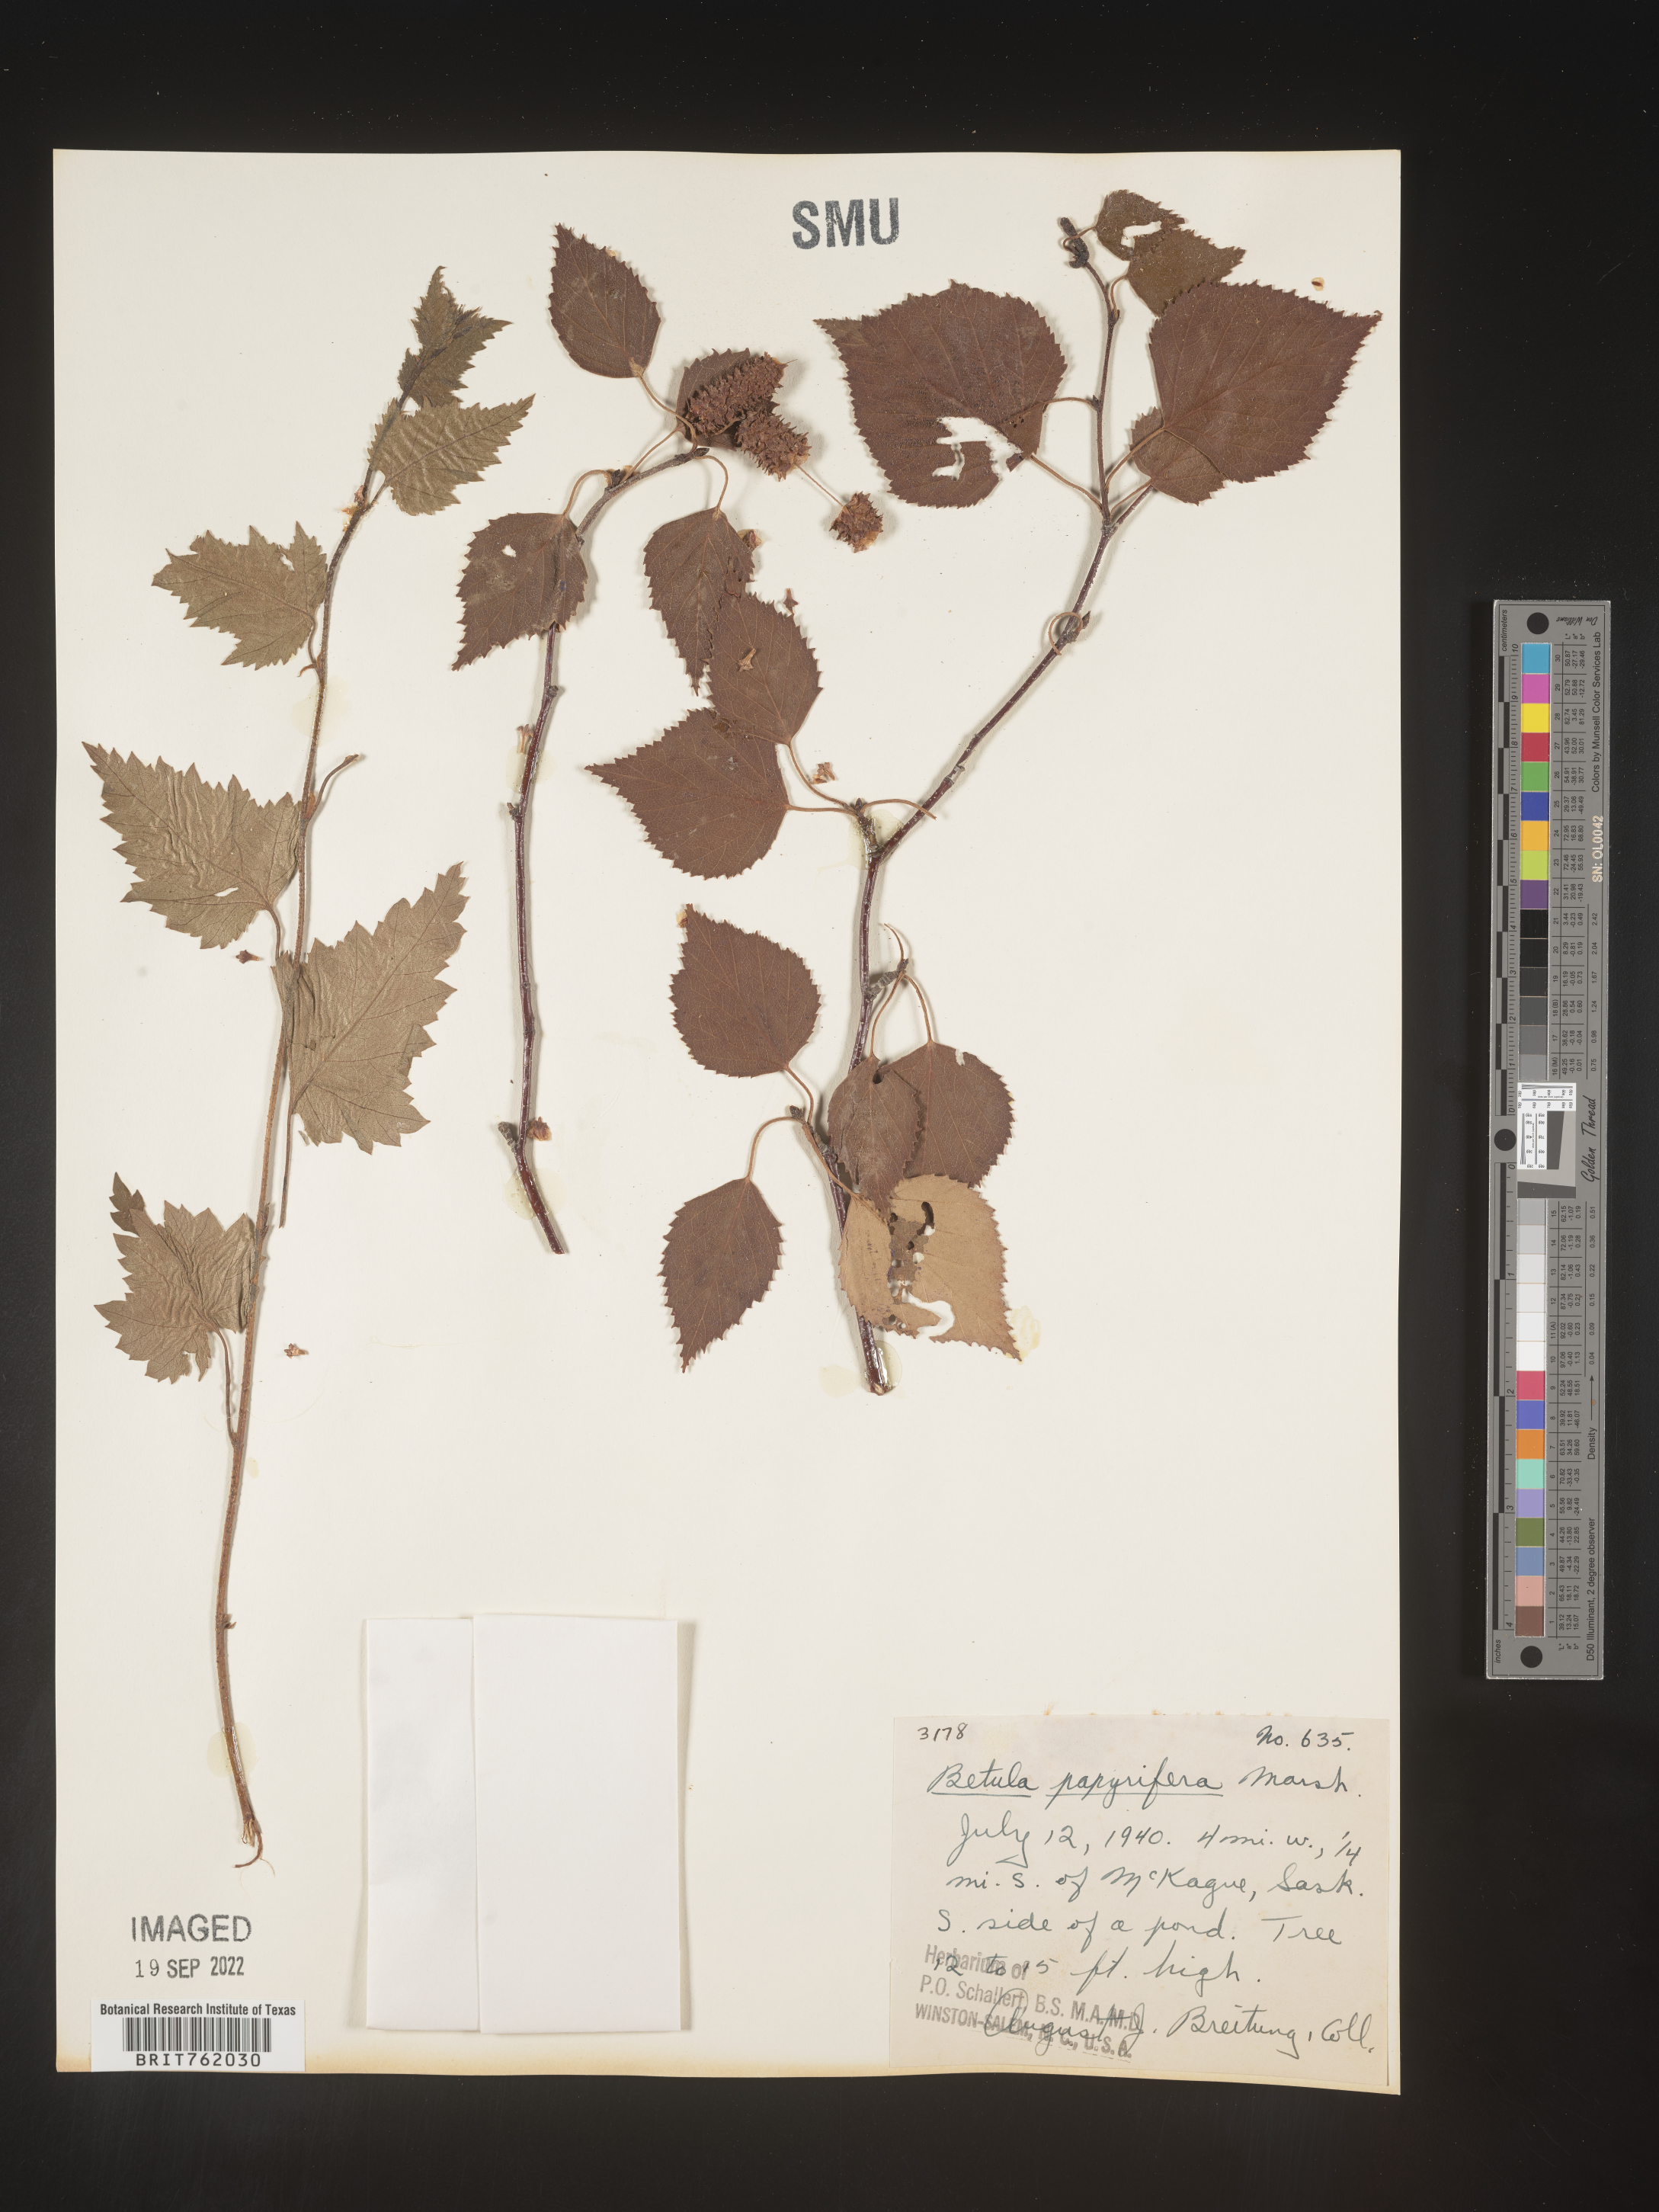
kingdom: Plantae
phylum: Tracheophyta
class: Magnoliopsida
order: Fagales
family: Betulaceae
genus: Betula
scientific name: Betula papyrifera
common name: Paper birch
